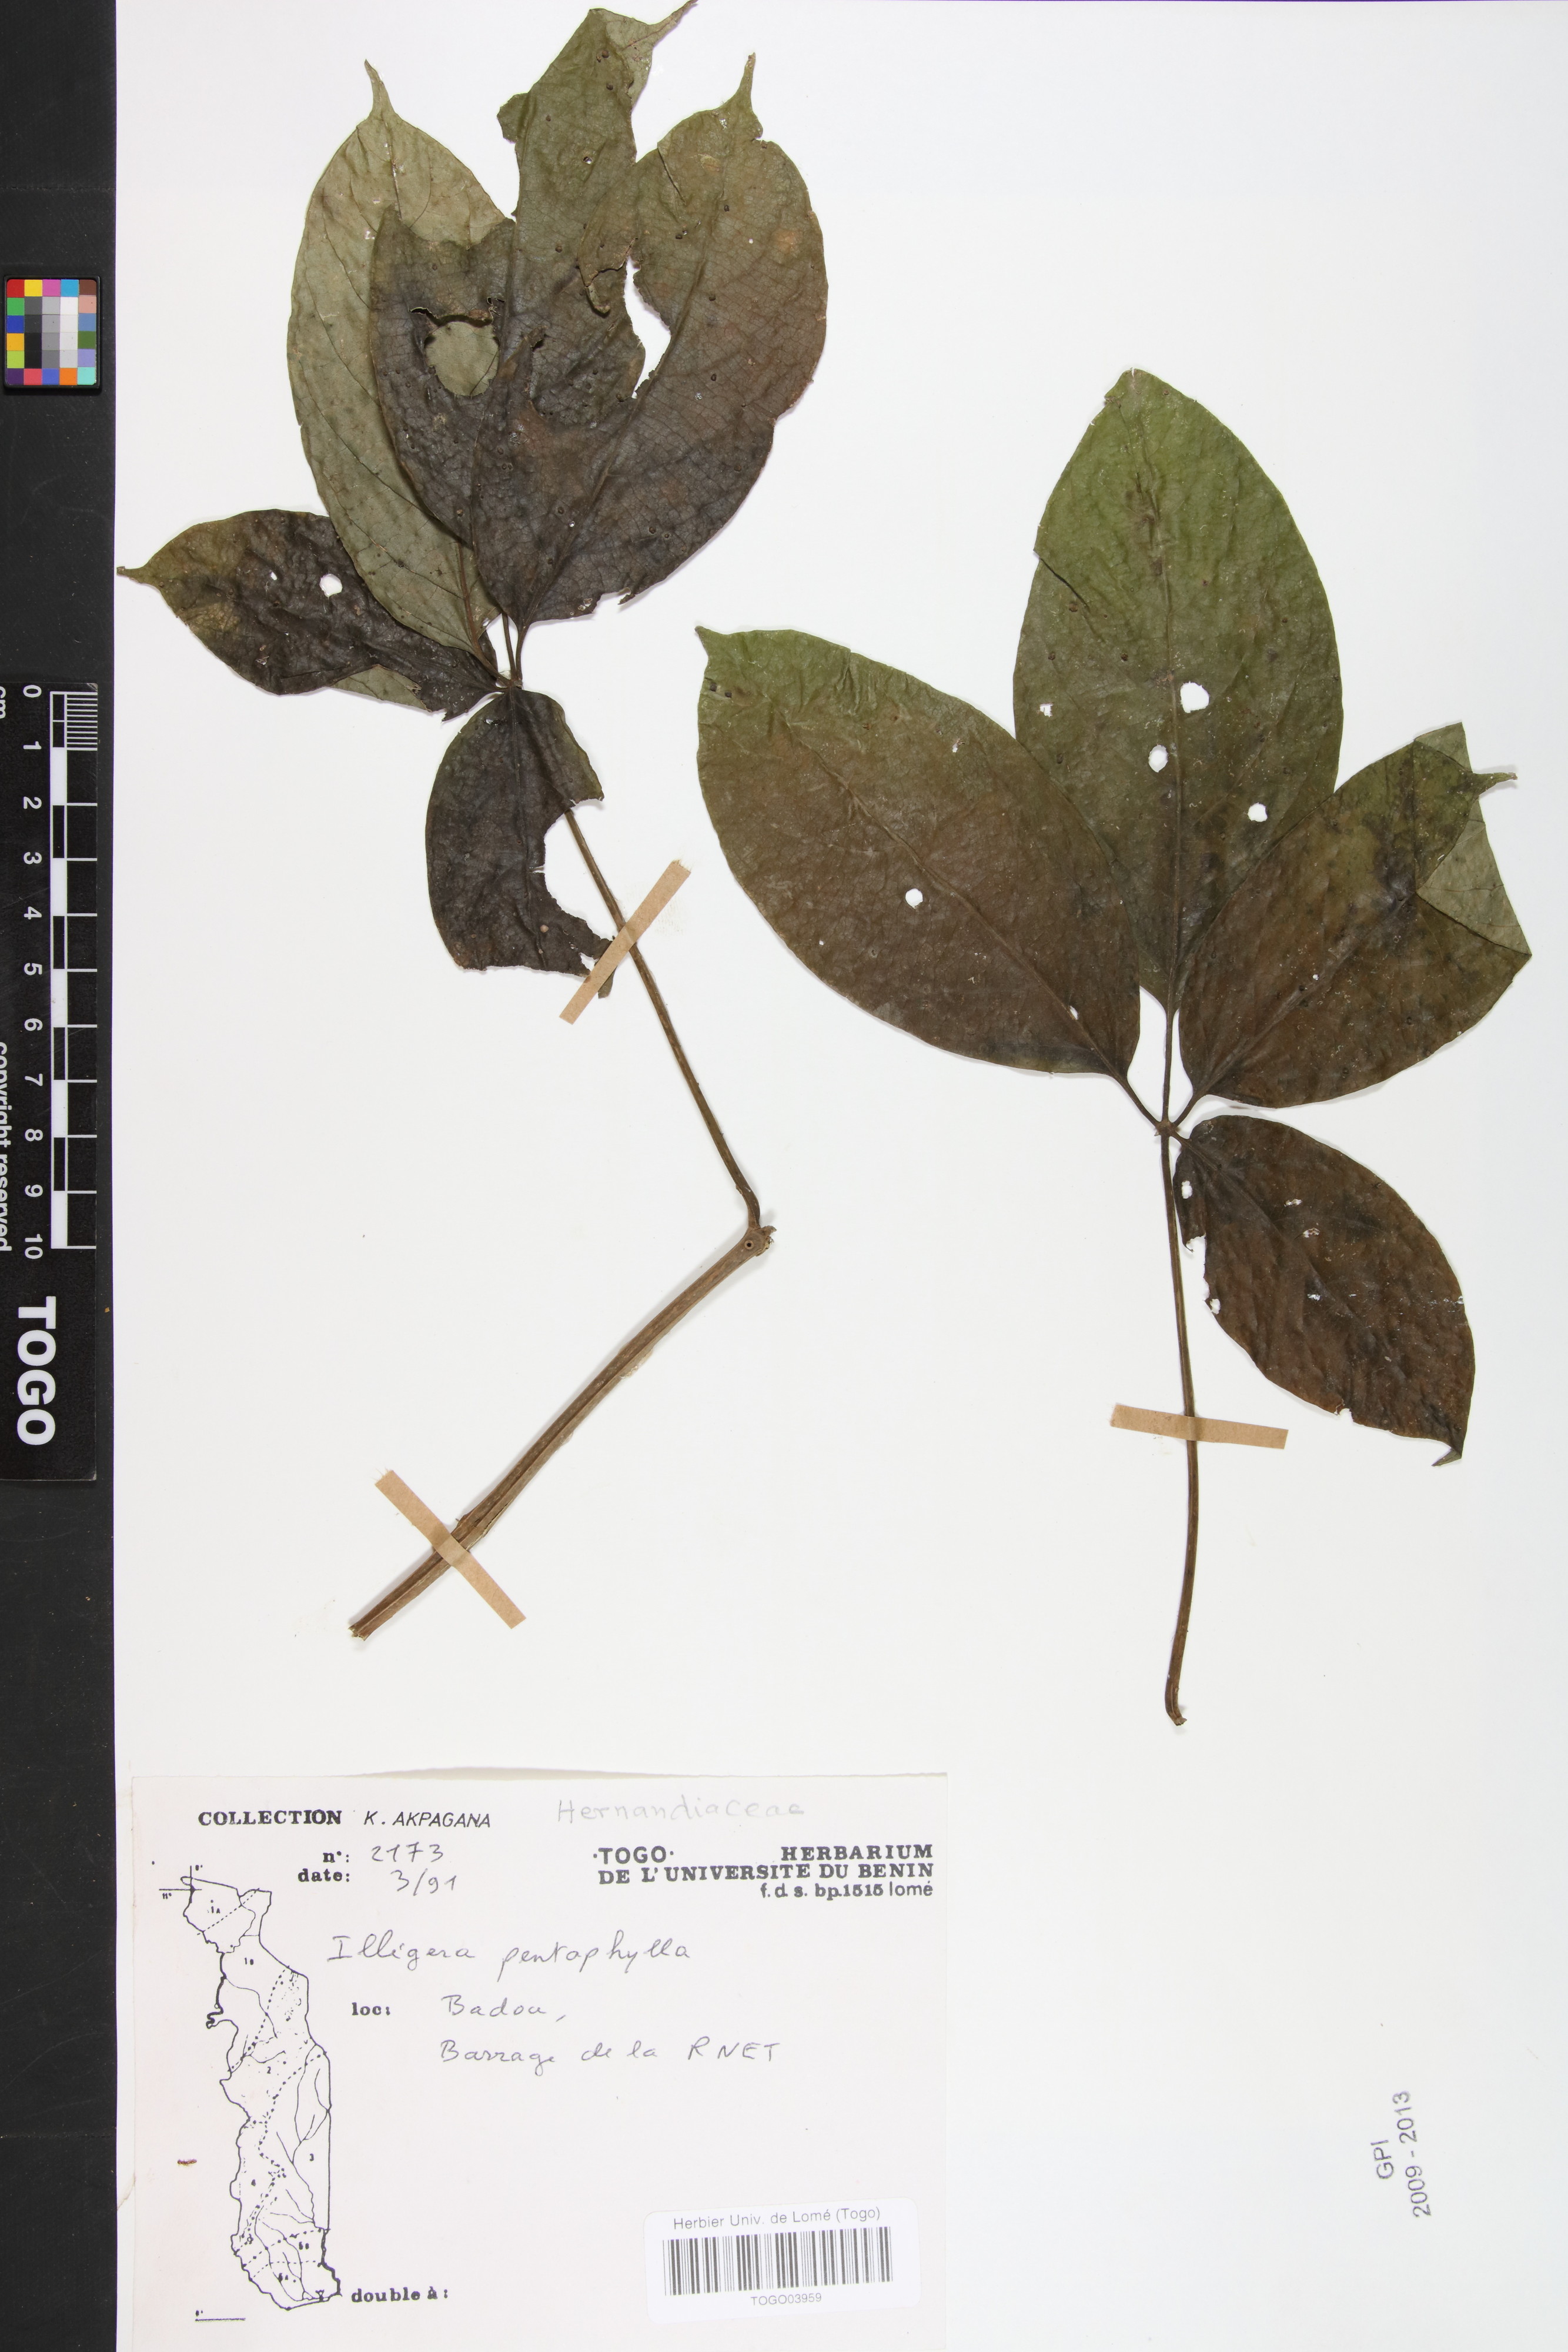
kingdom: Plantae
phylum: Tracheophyta
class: Magnoliopsida
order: Laurales
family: Hernandiaceae
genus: Illigera
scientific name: Illigera pentaphylla
